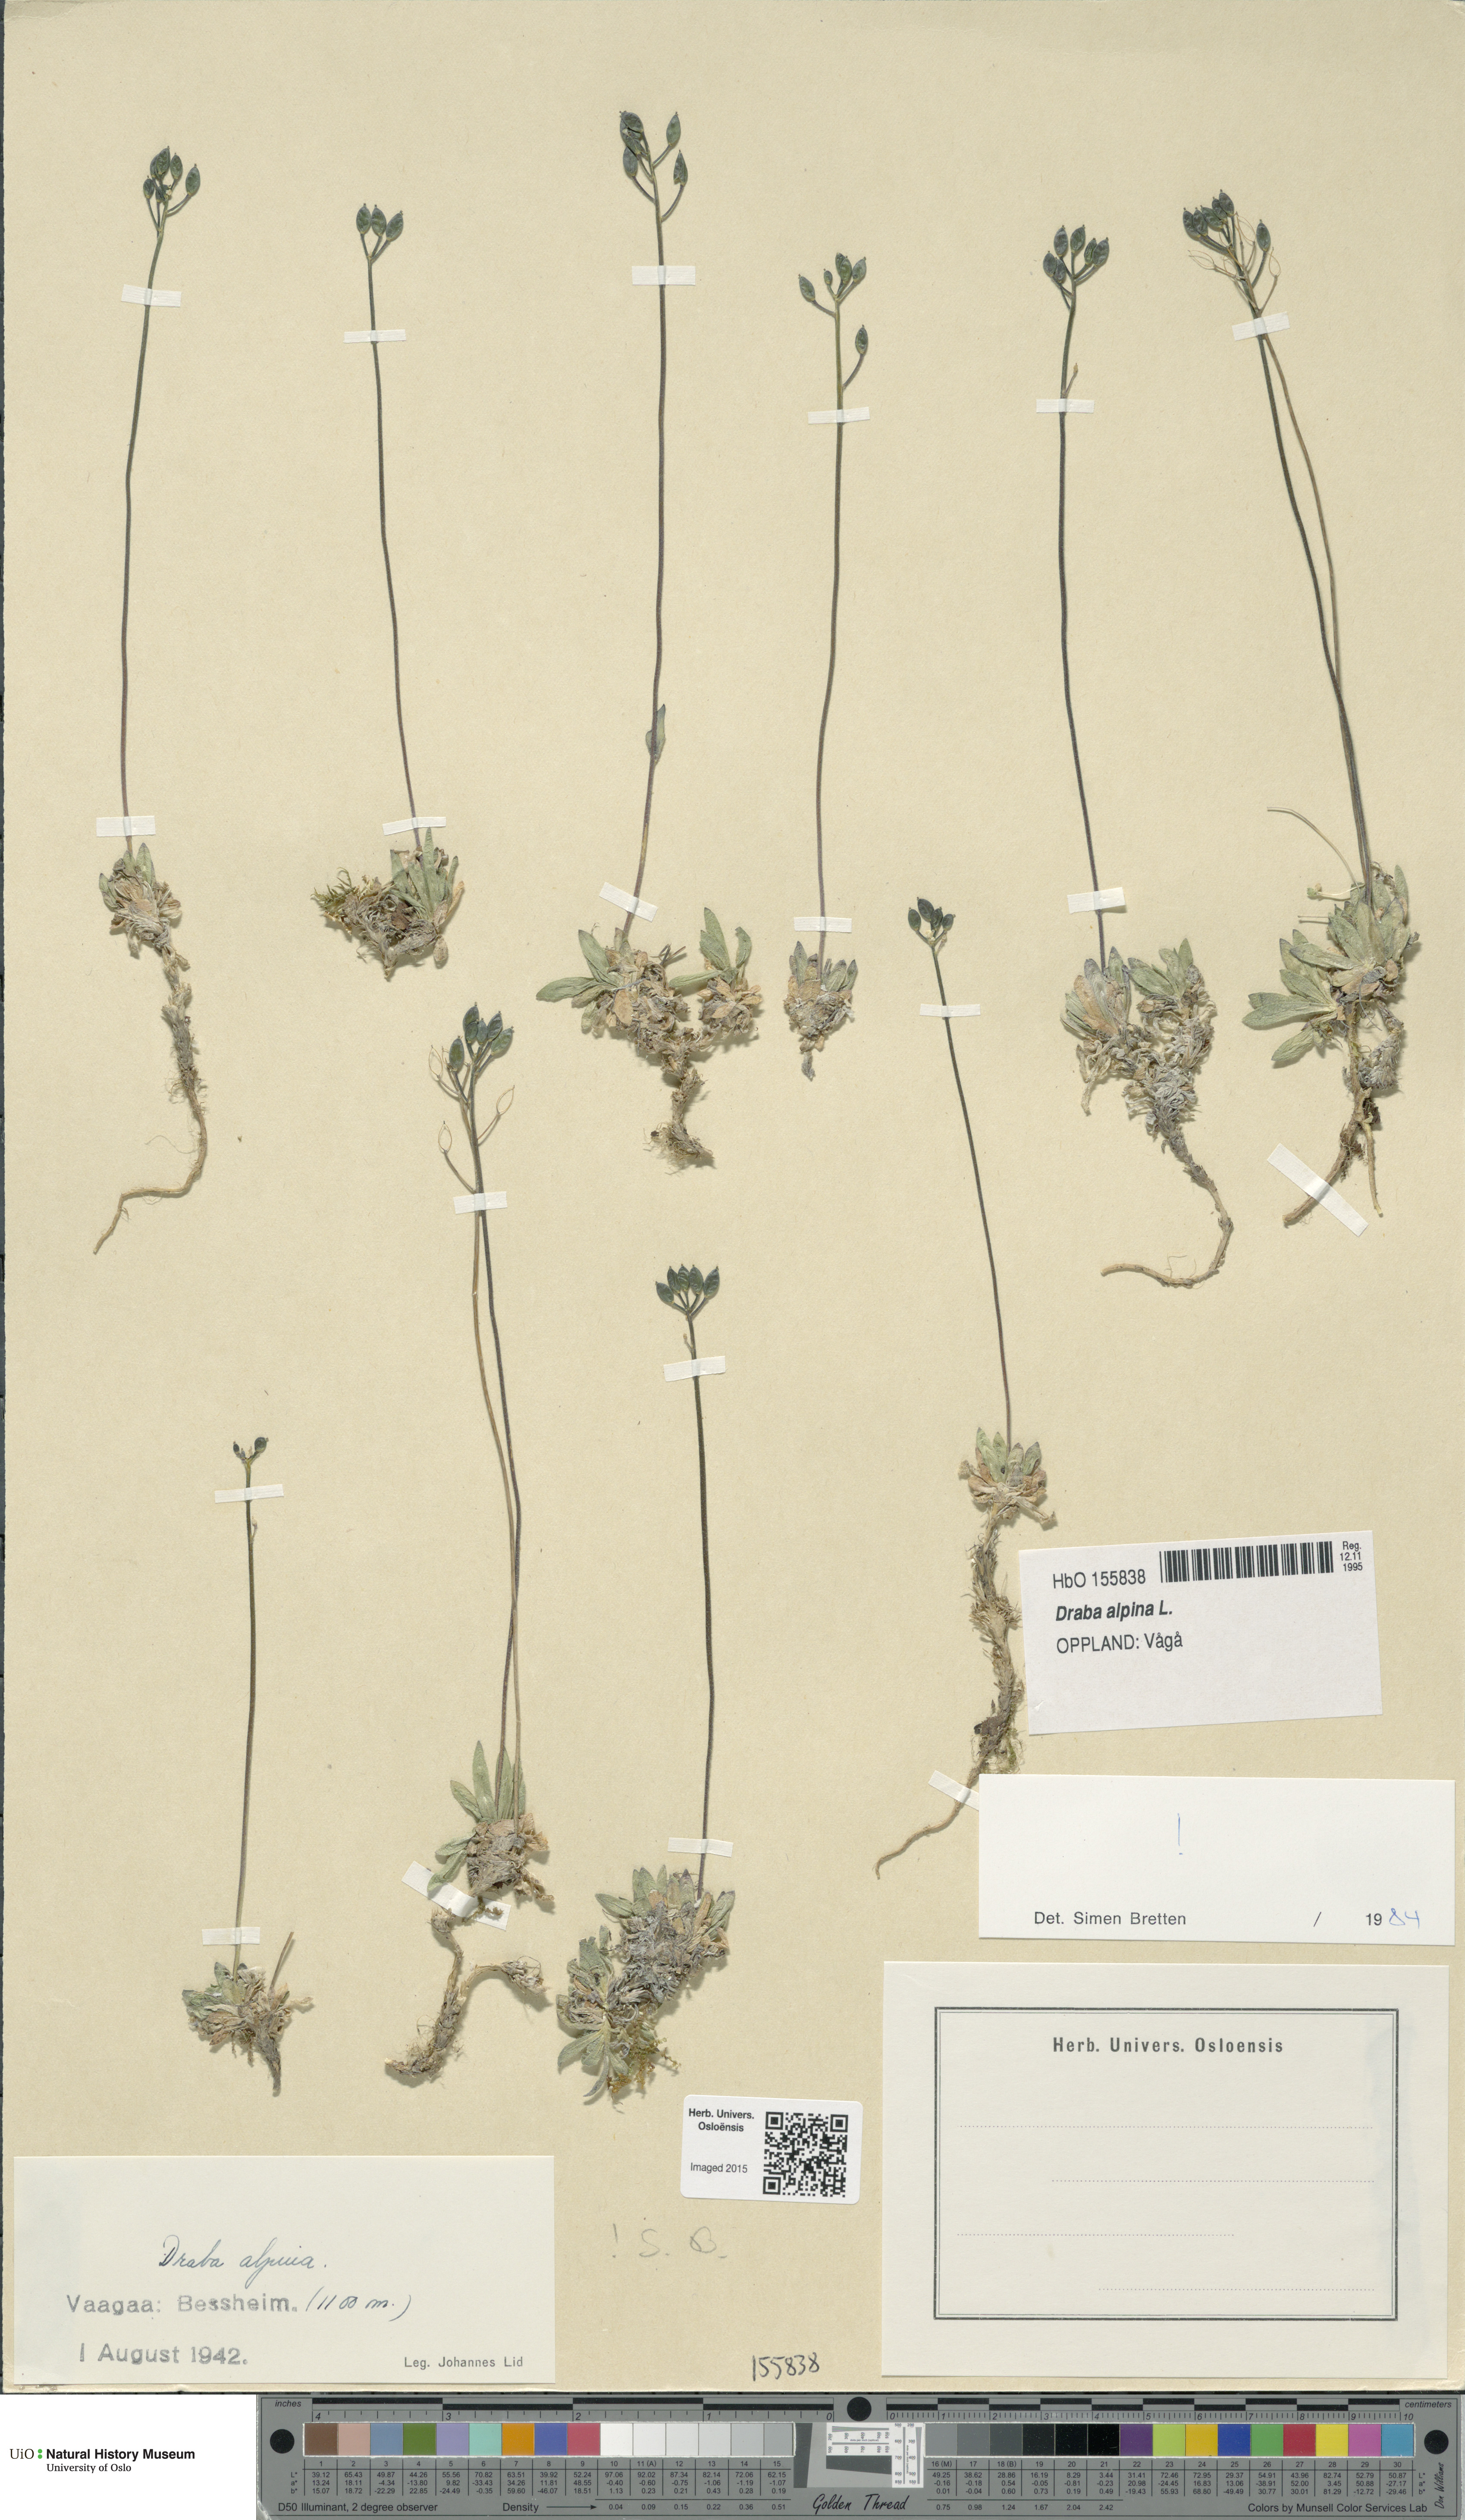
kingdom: Plantae
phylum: Tracheophyta
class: Magnoliopsida
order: Brassicales
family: Brassicaceae
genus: Draba
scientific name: Draba alpina
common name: Alpine draba
